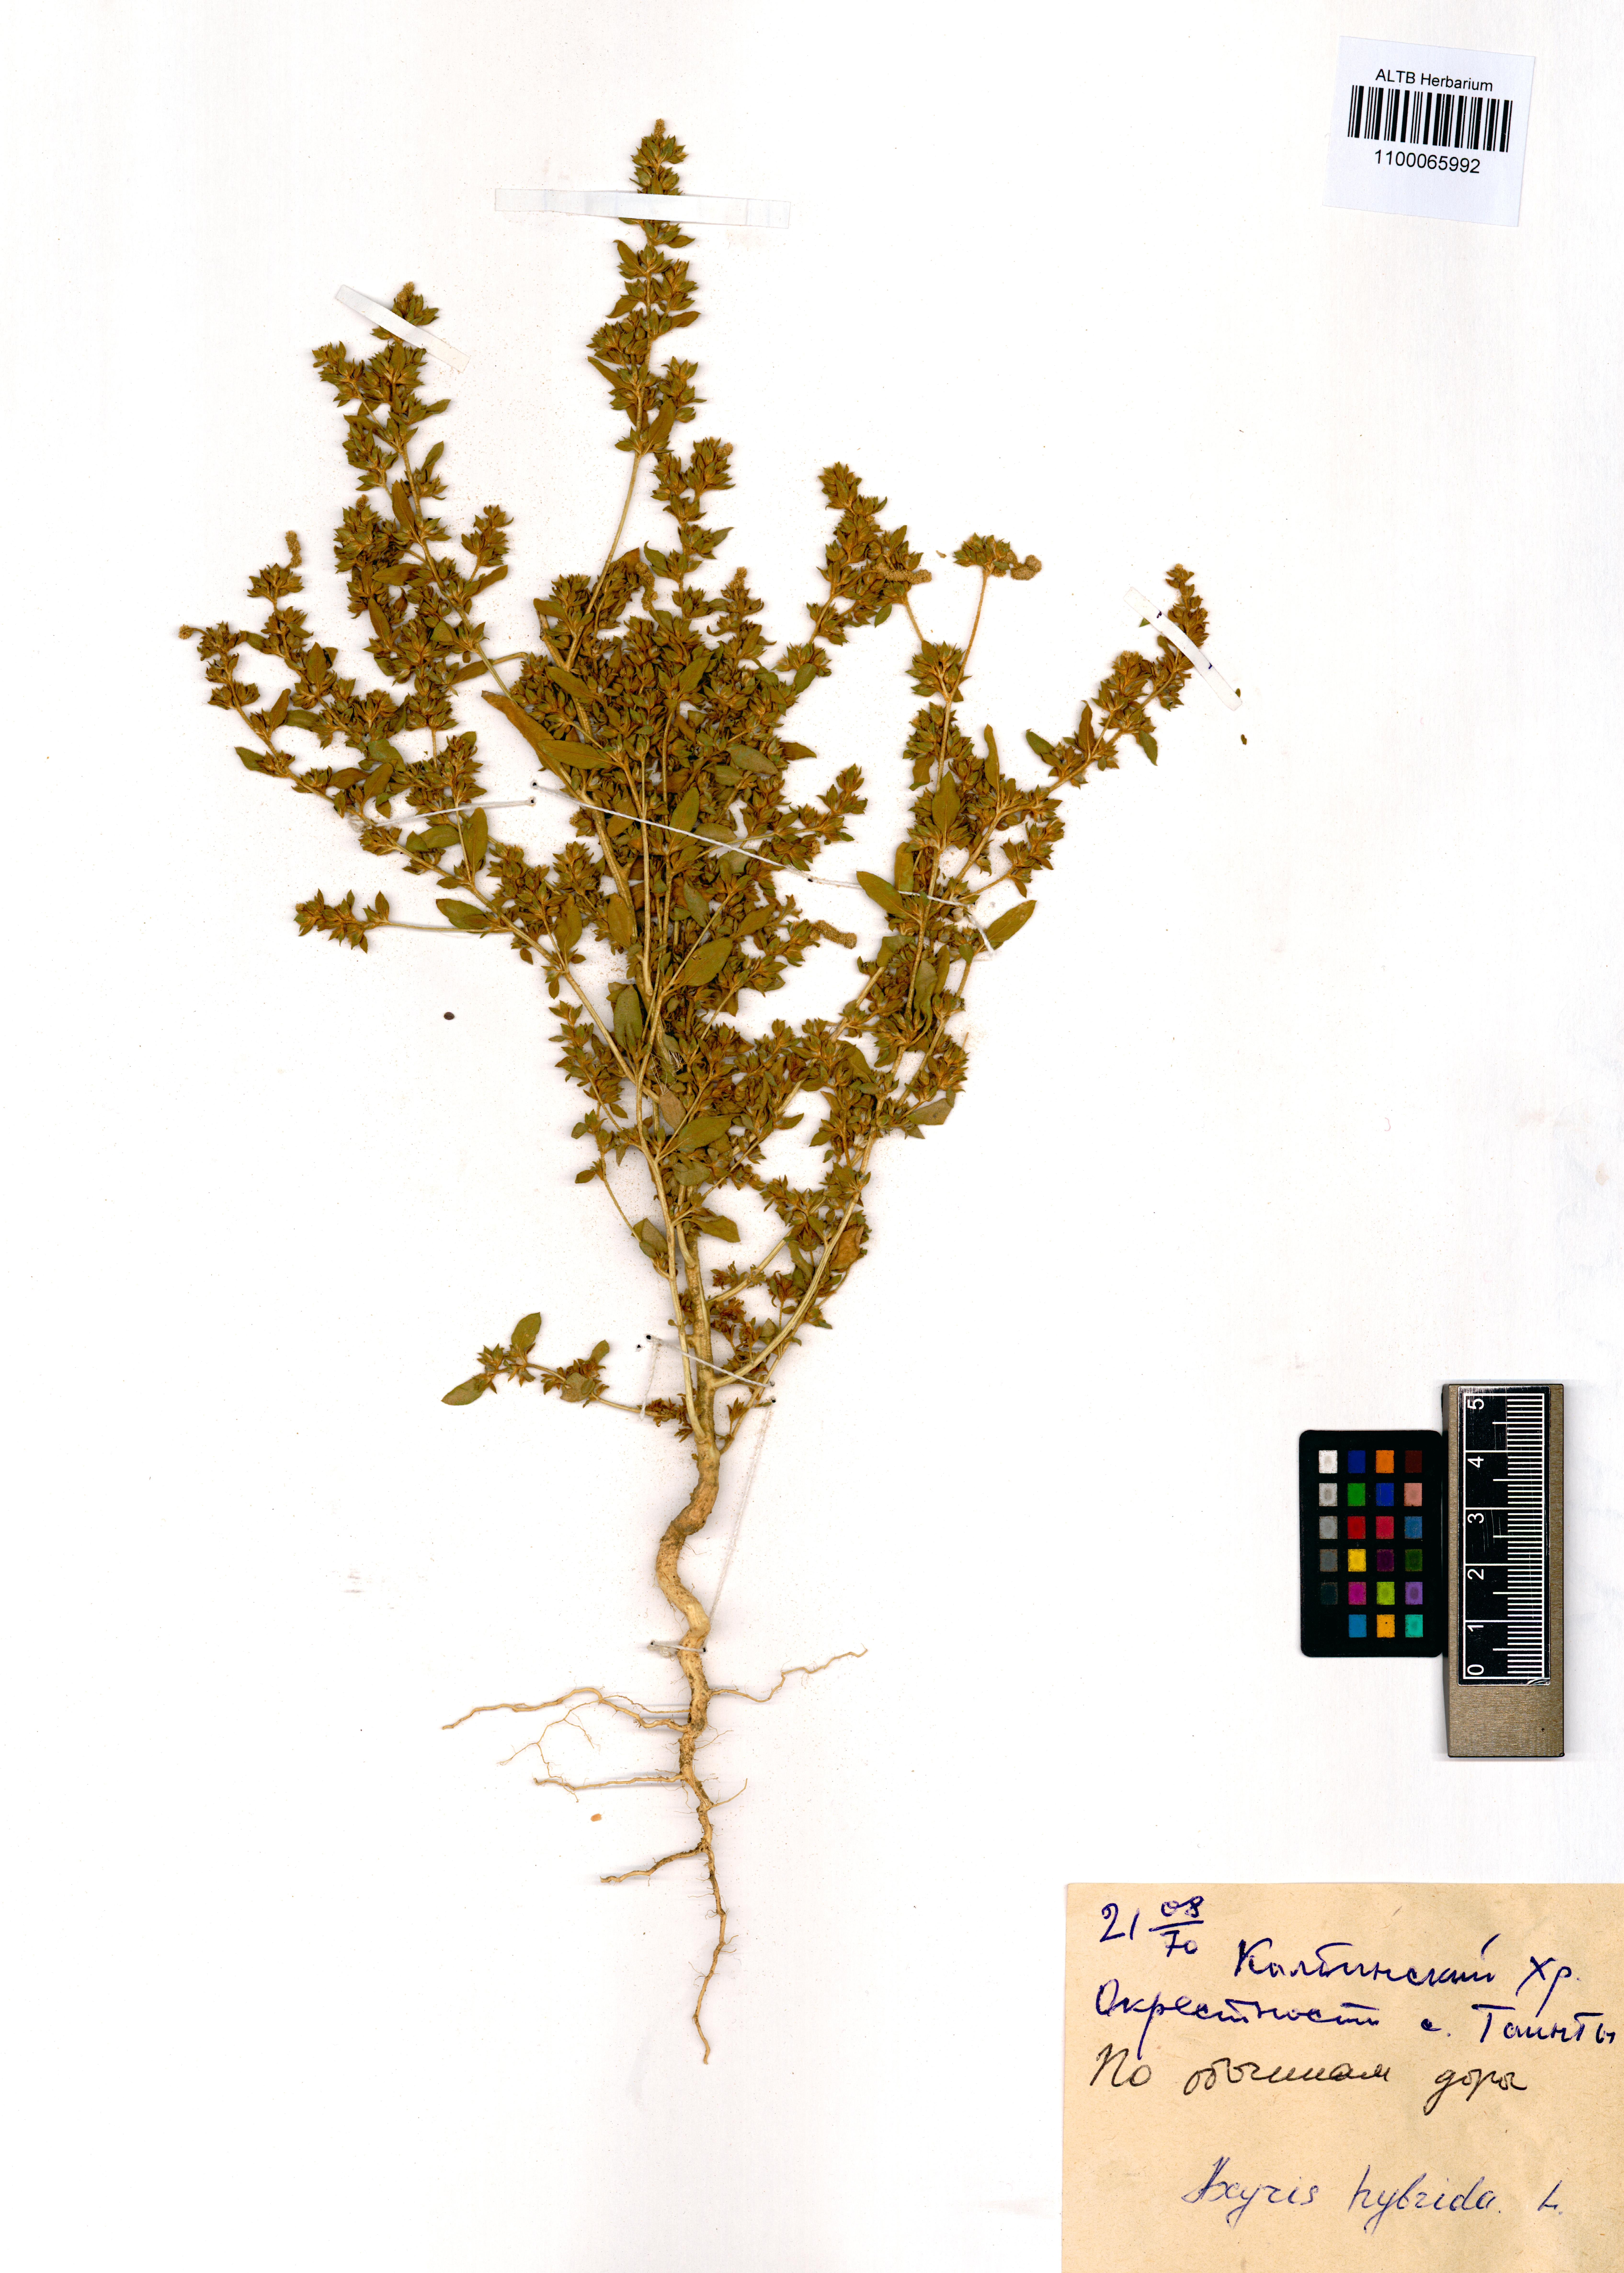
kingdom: Plantae
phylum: Tracheophyta
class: Magnoliopsida
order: Caryophyllales
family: Amaranthaceae
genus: Axyris
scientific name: Axyris hybrida
